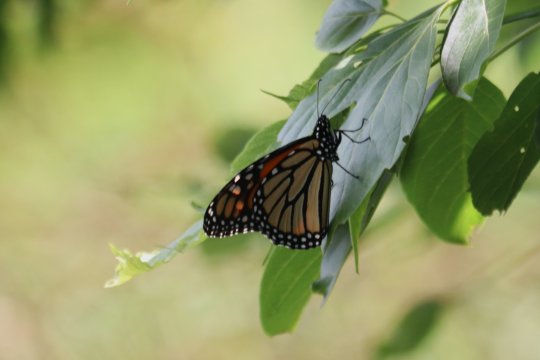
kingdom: Animalia
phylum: Arthropoda
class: Insecta
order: Lepidoptera
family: Nymphalidae
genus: Danaus
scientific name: Danaus plexippus
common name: Monarch
